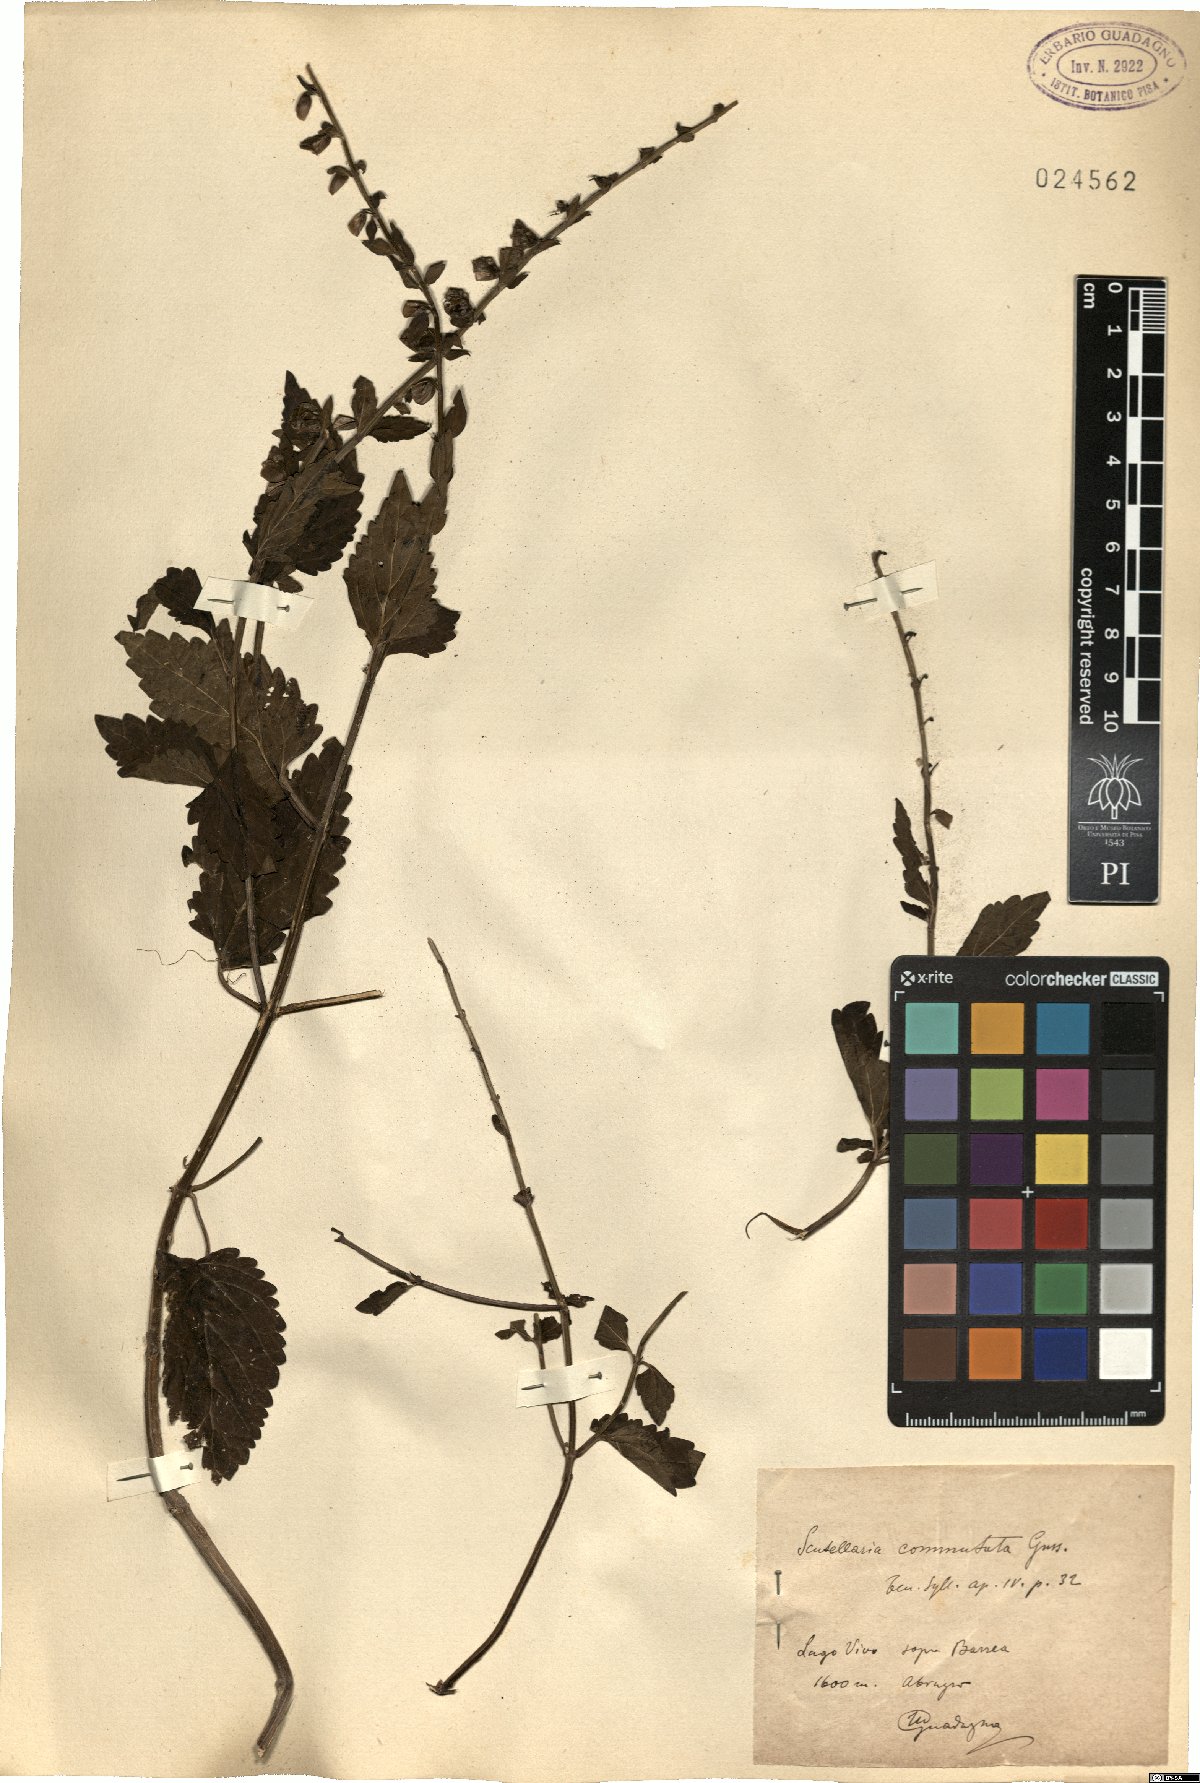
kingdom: Plantae
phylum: Tracheophyta
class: Magnoliopsida
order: Lamiales
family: Lamiaceae
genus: Scutellaria
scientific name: Scutellaria altissima
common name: Somerset skullcap
